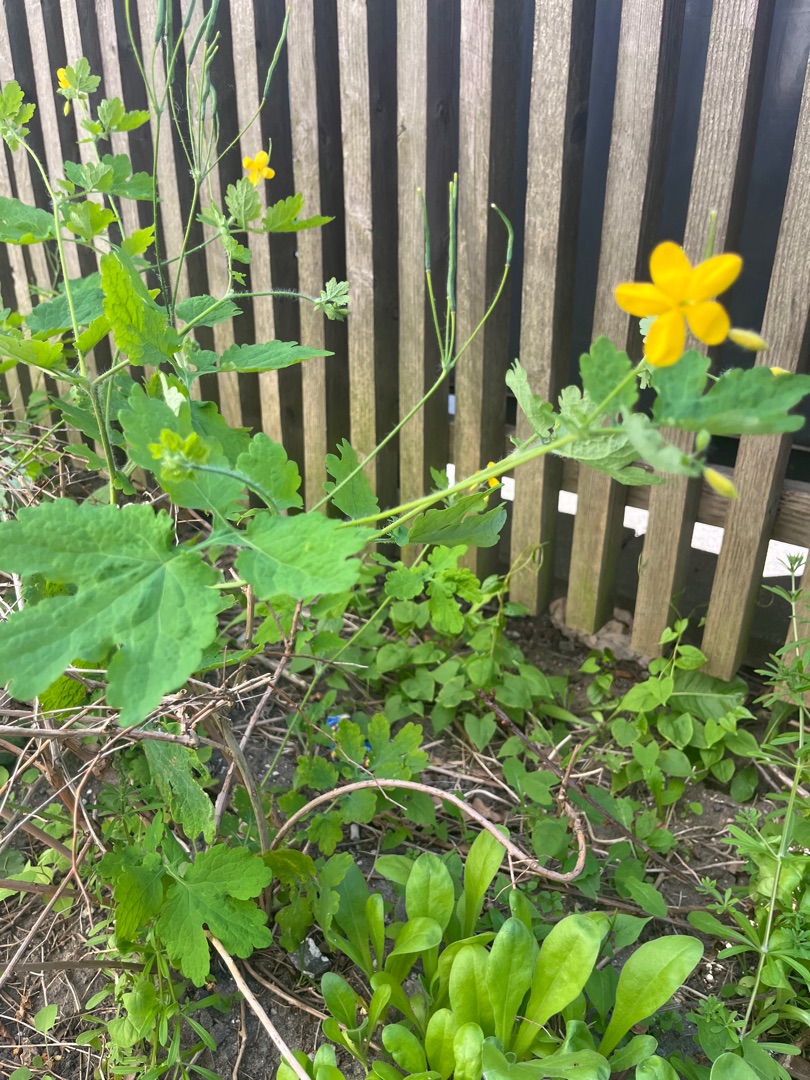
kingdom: Plantae
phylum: Tracheophyta
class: Magnoliopsida
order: Ranunculales
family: Papaveraceae
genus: Chelidonium
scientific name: Chelidonium majus
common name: Svaleurt
